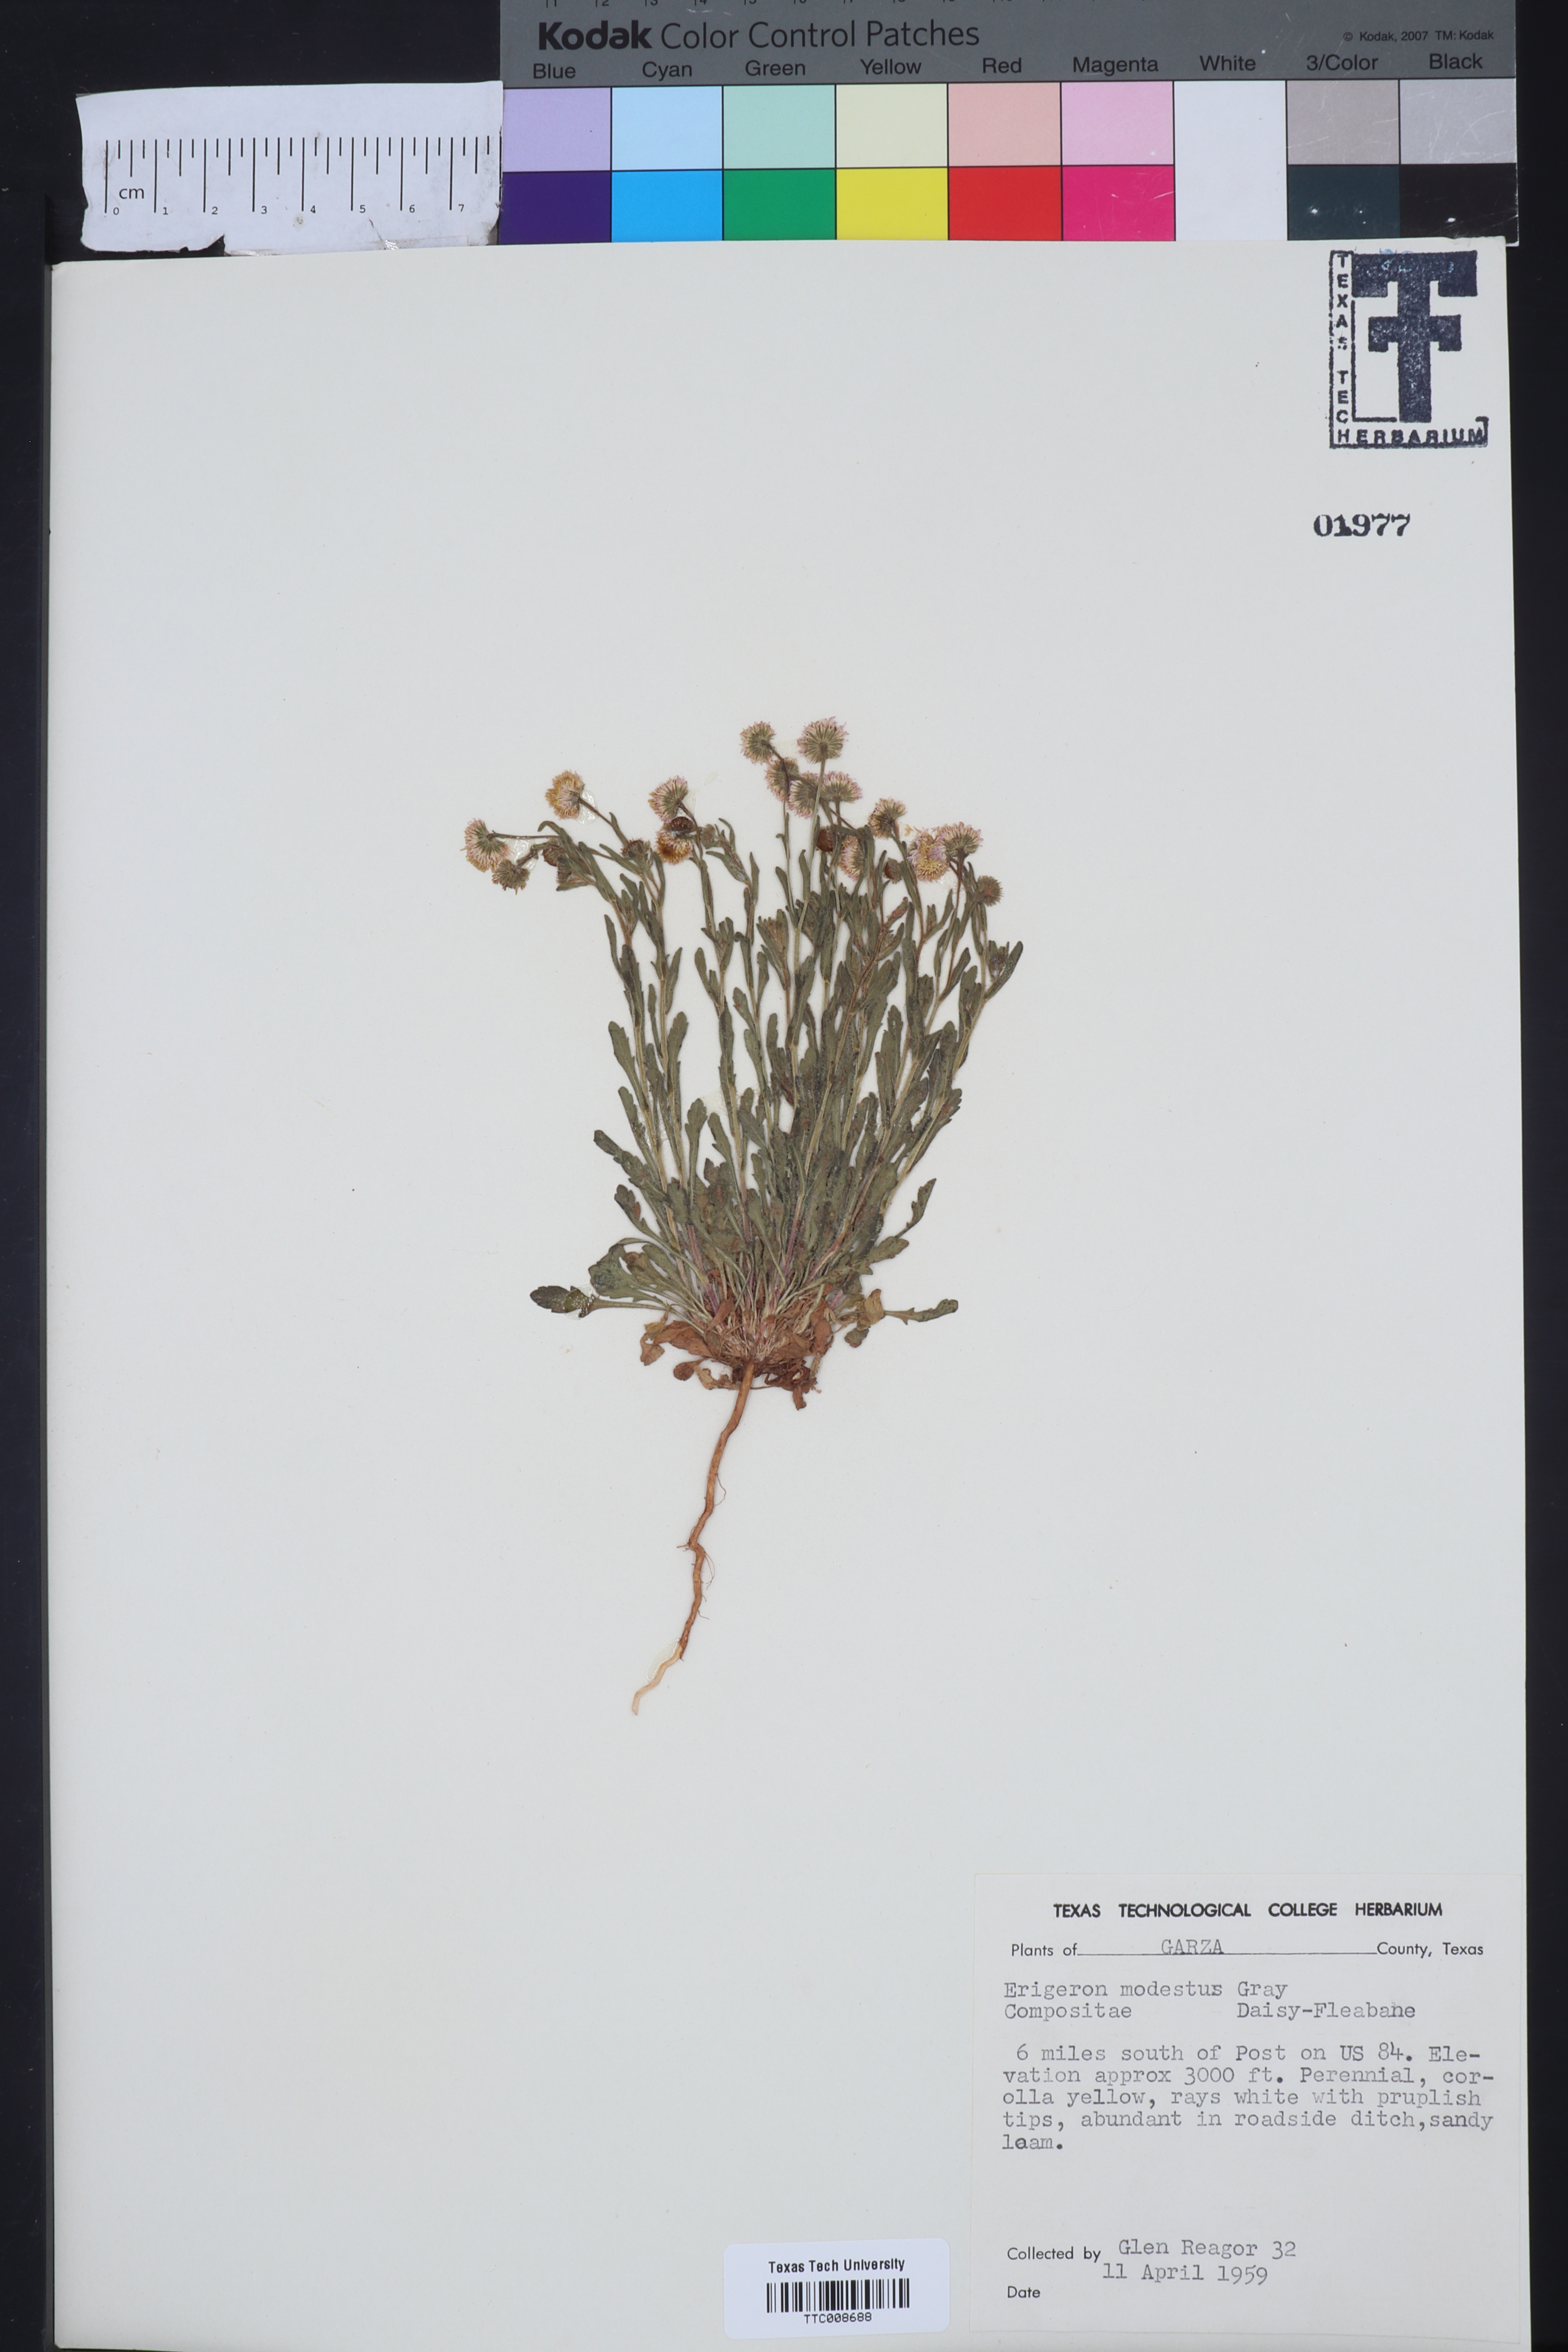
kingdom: Plantae
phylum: Tracheophyta
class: Magnoliopsida
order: Asterales
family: Asteraceae
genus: Erigeron
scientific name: Erigeron modestus
